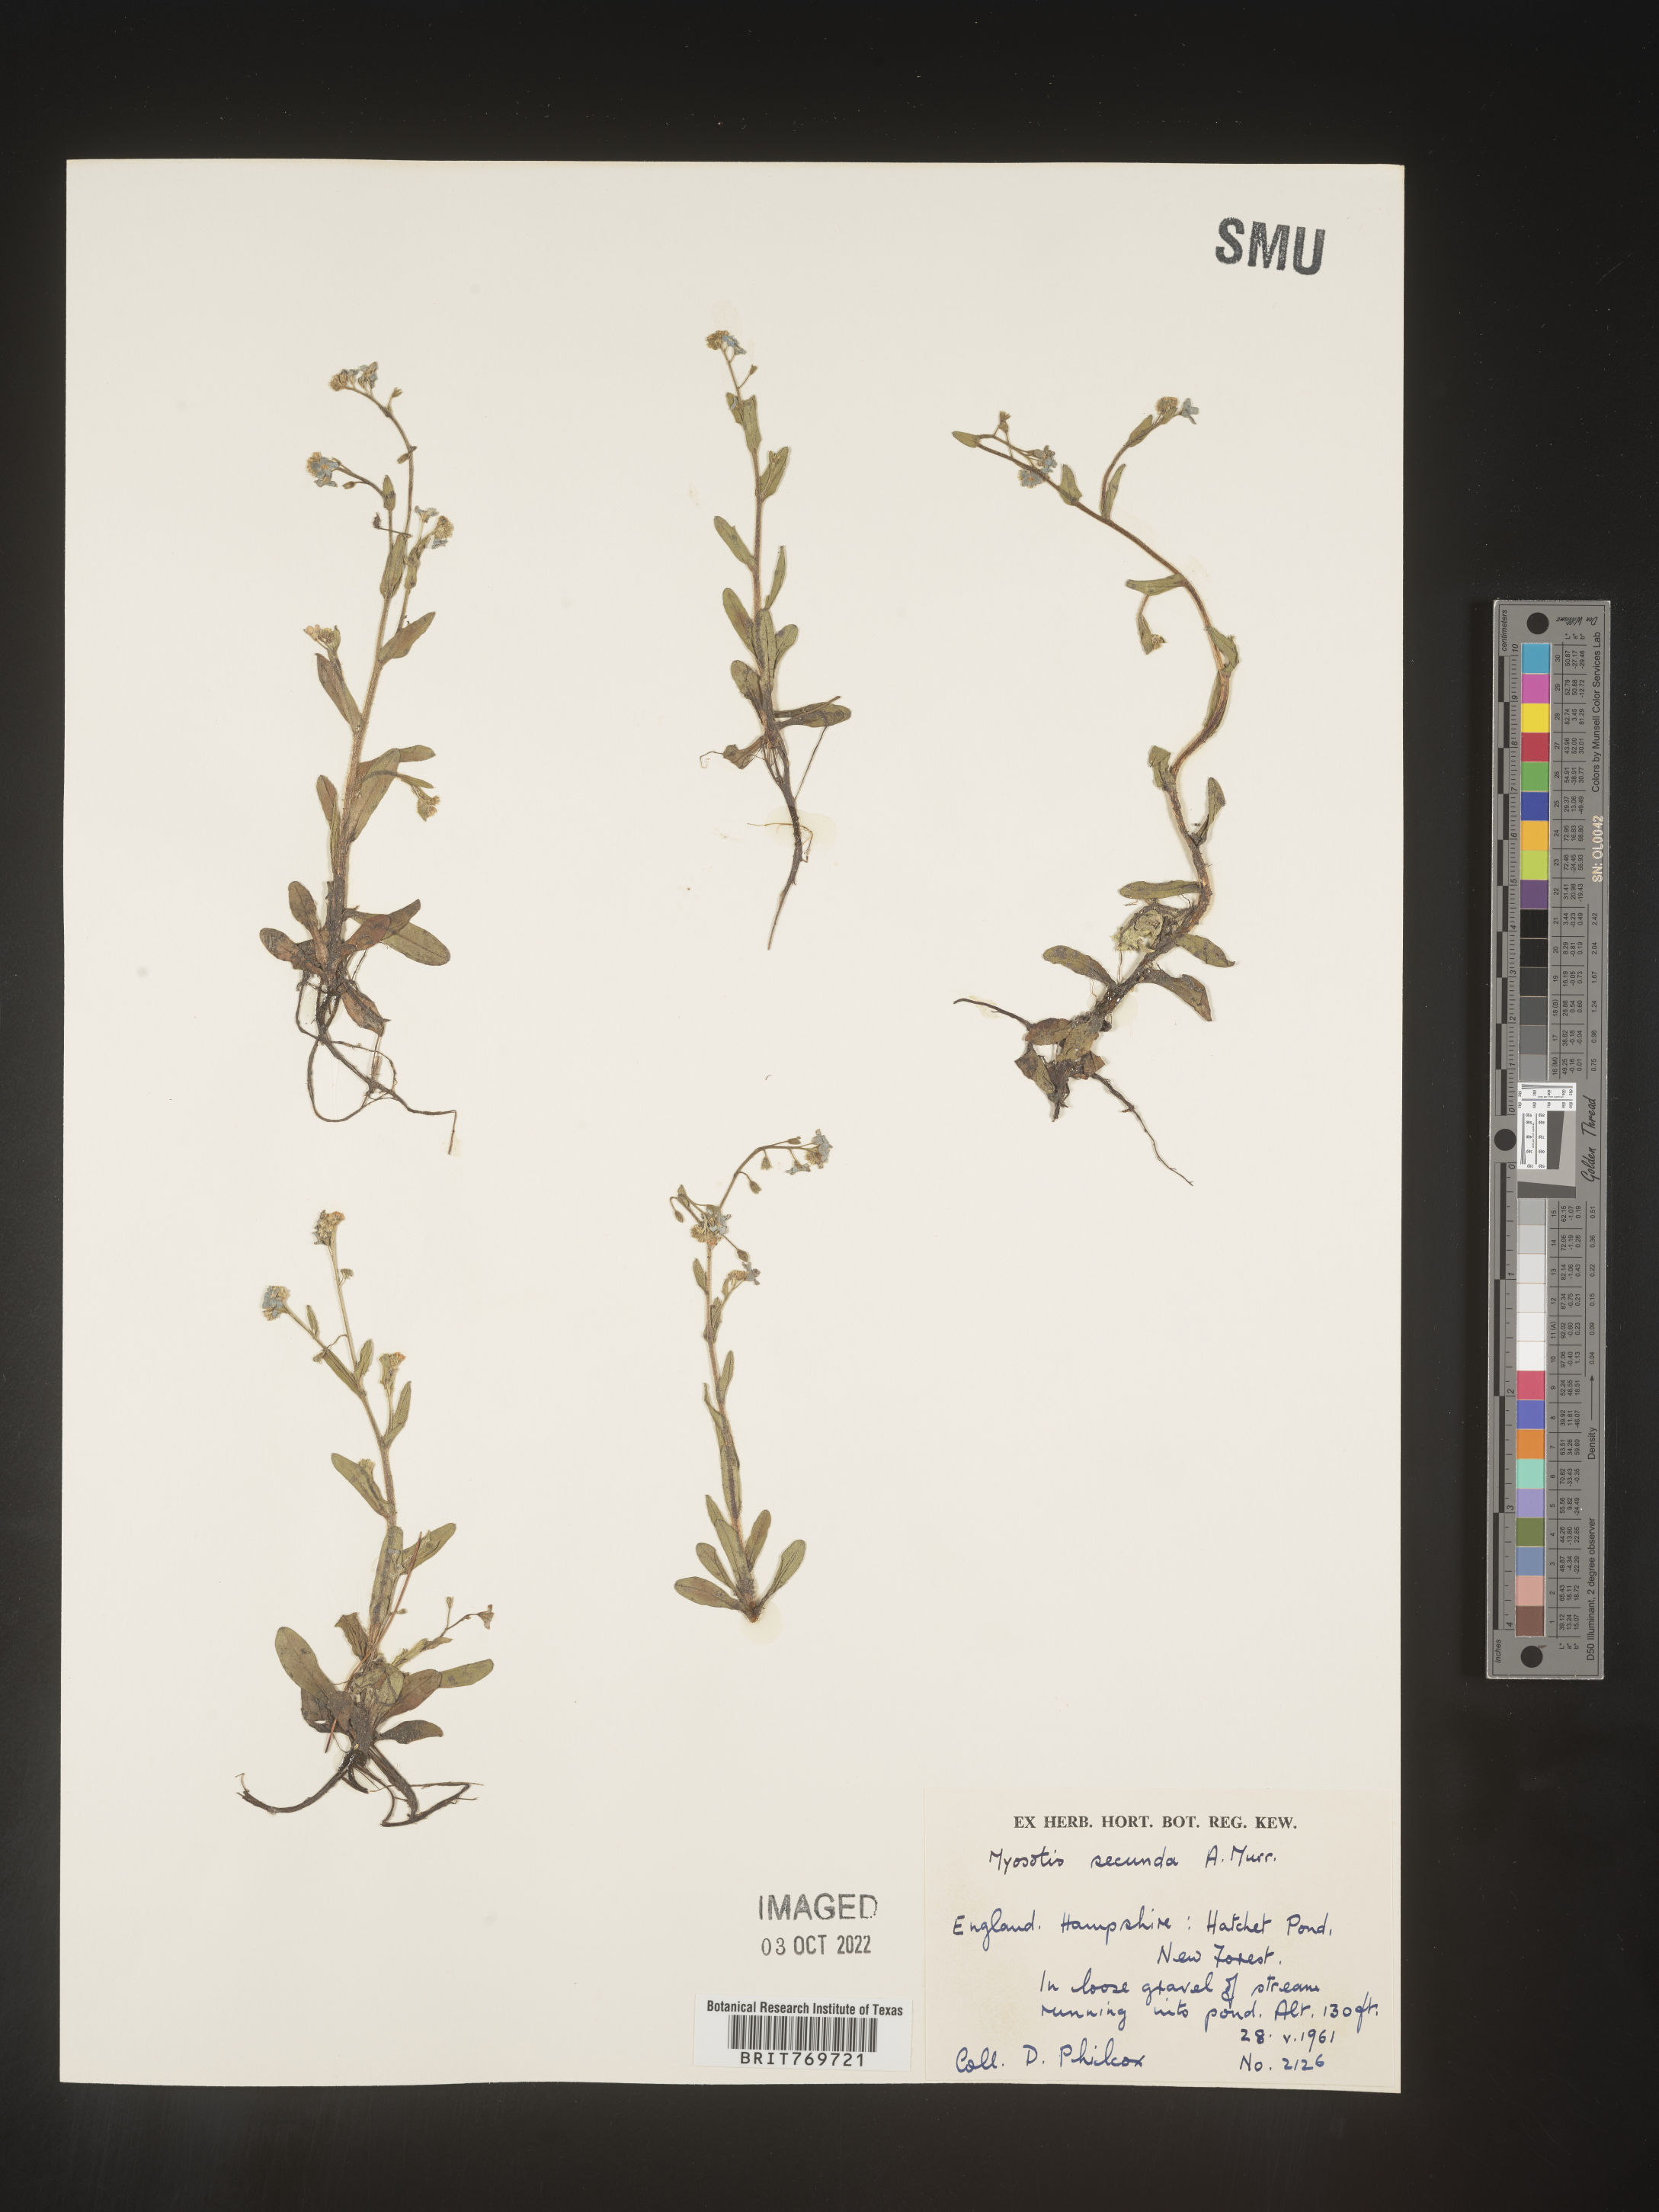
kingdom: Plantae
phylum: Tracheophyta
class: Magnoliopsida
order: Boraginales
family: Boraginaceae
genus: Myosotis
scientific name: Myosotis
